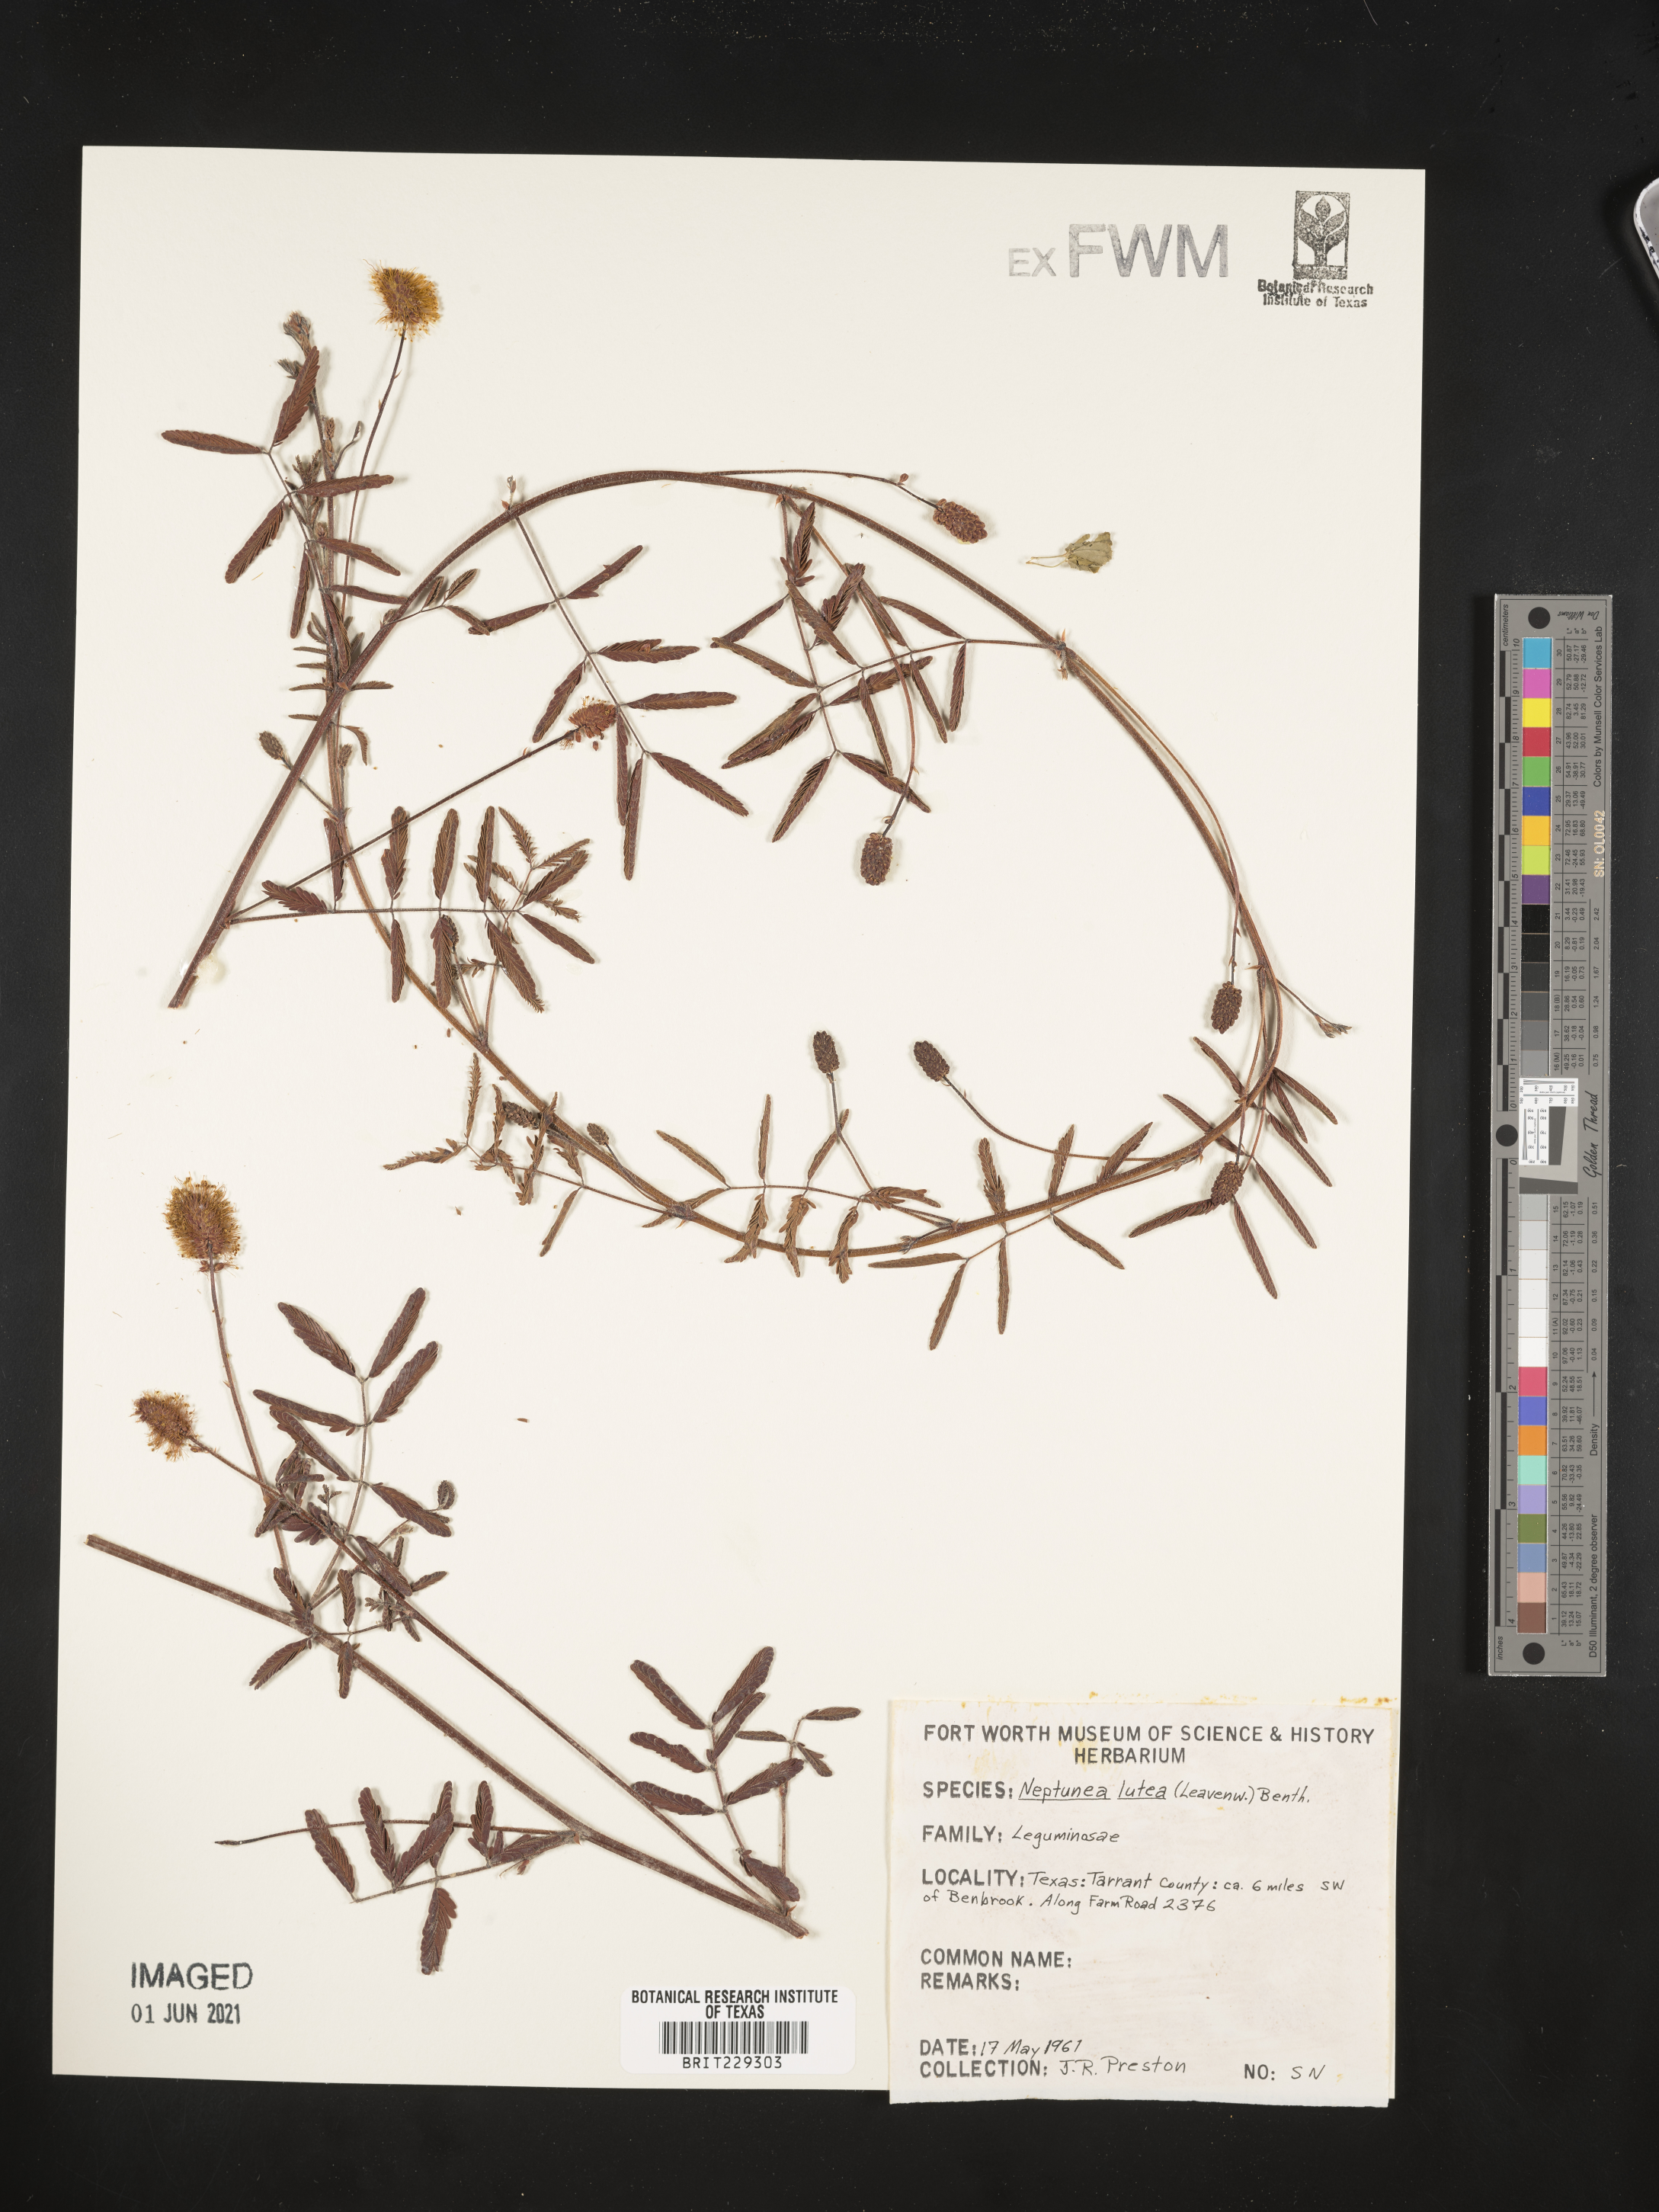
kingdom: Plantae
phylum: Tracheophyta
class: Magnoliopsida
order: Fabales
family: Fabaceae
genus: Neptunia
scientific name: Neptunia lutea
